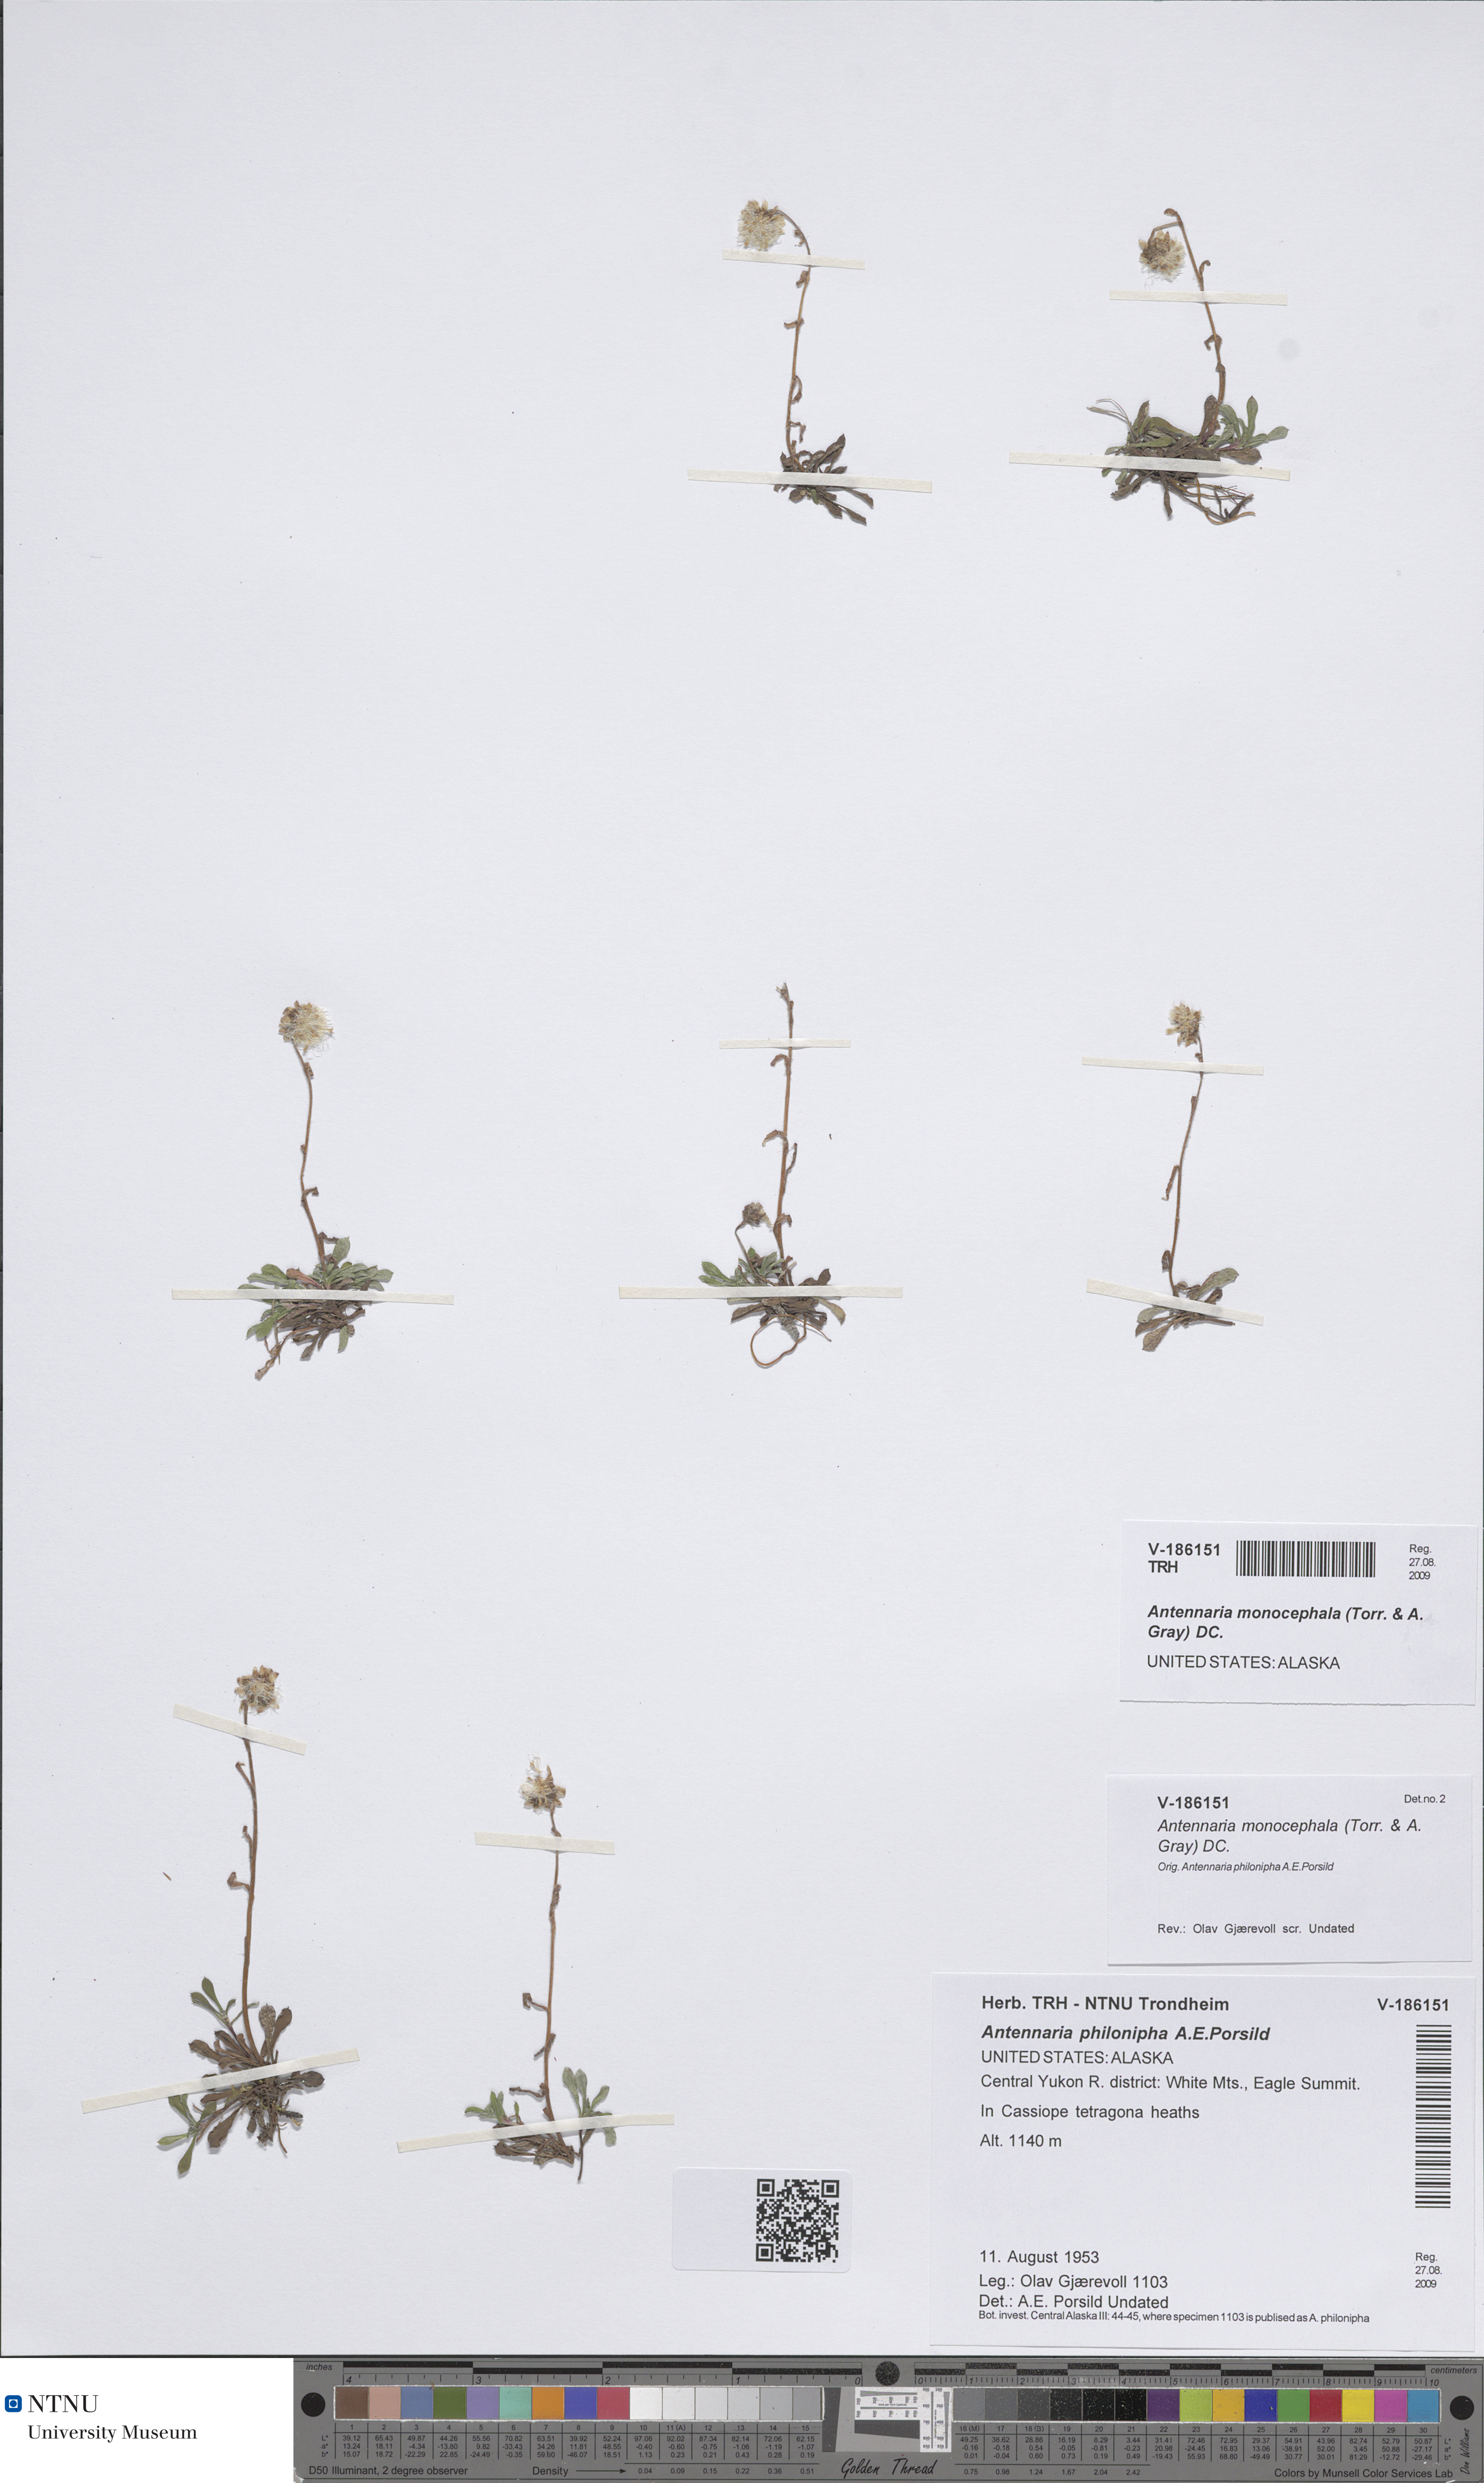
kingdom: Plantae
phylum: Tracheophyta
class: Magnoliopsida
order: Asterales
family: Asteraceae
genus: Antennaria
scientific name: Antennaria monocephala
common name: Pygmy pussytoes
